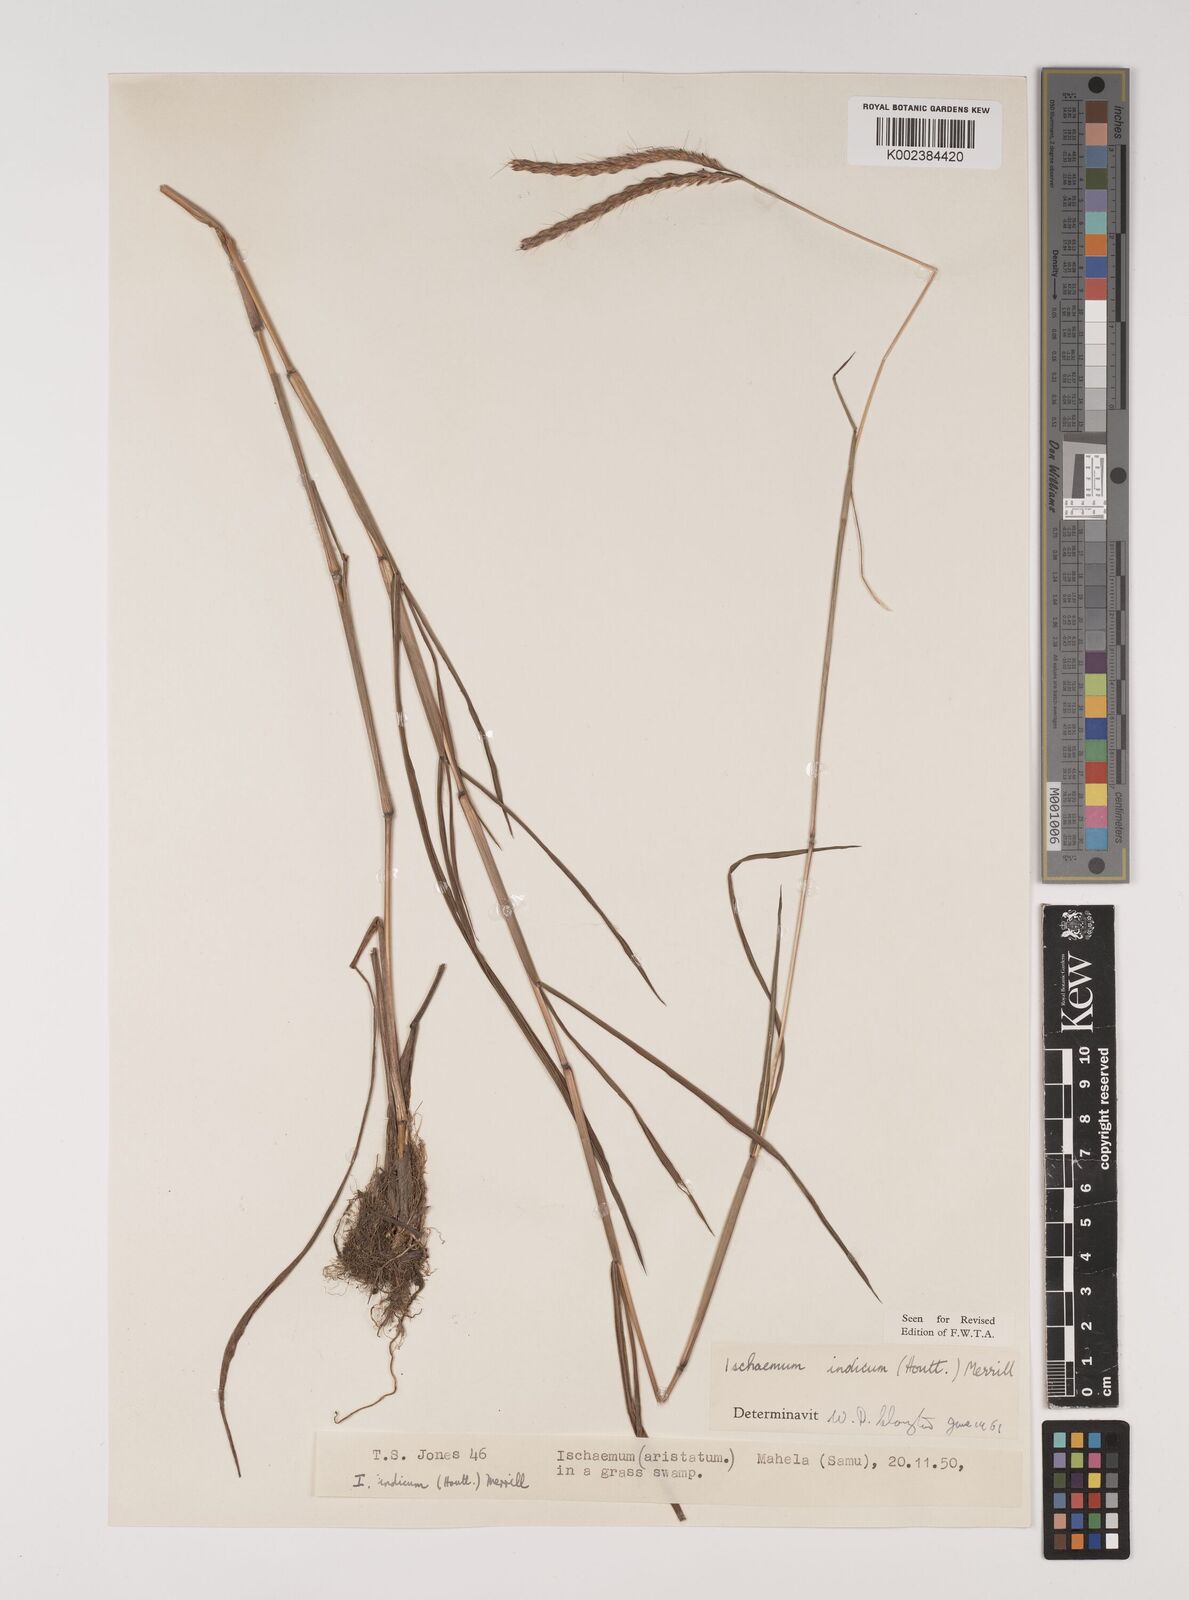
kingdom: Plantae
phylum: Tracheophyta
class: Liliopsida
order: Poales
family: Poaceae
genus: Polytrias
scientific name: Polytrias indica
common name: Indian murainagrass
